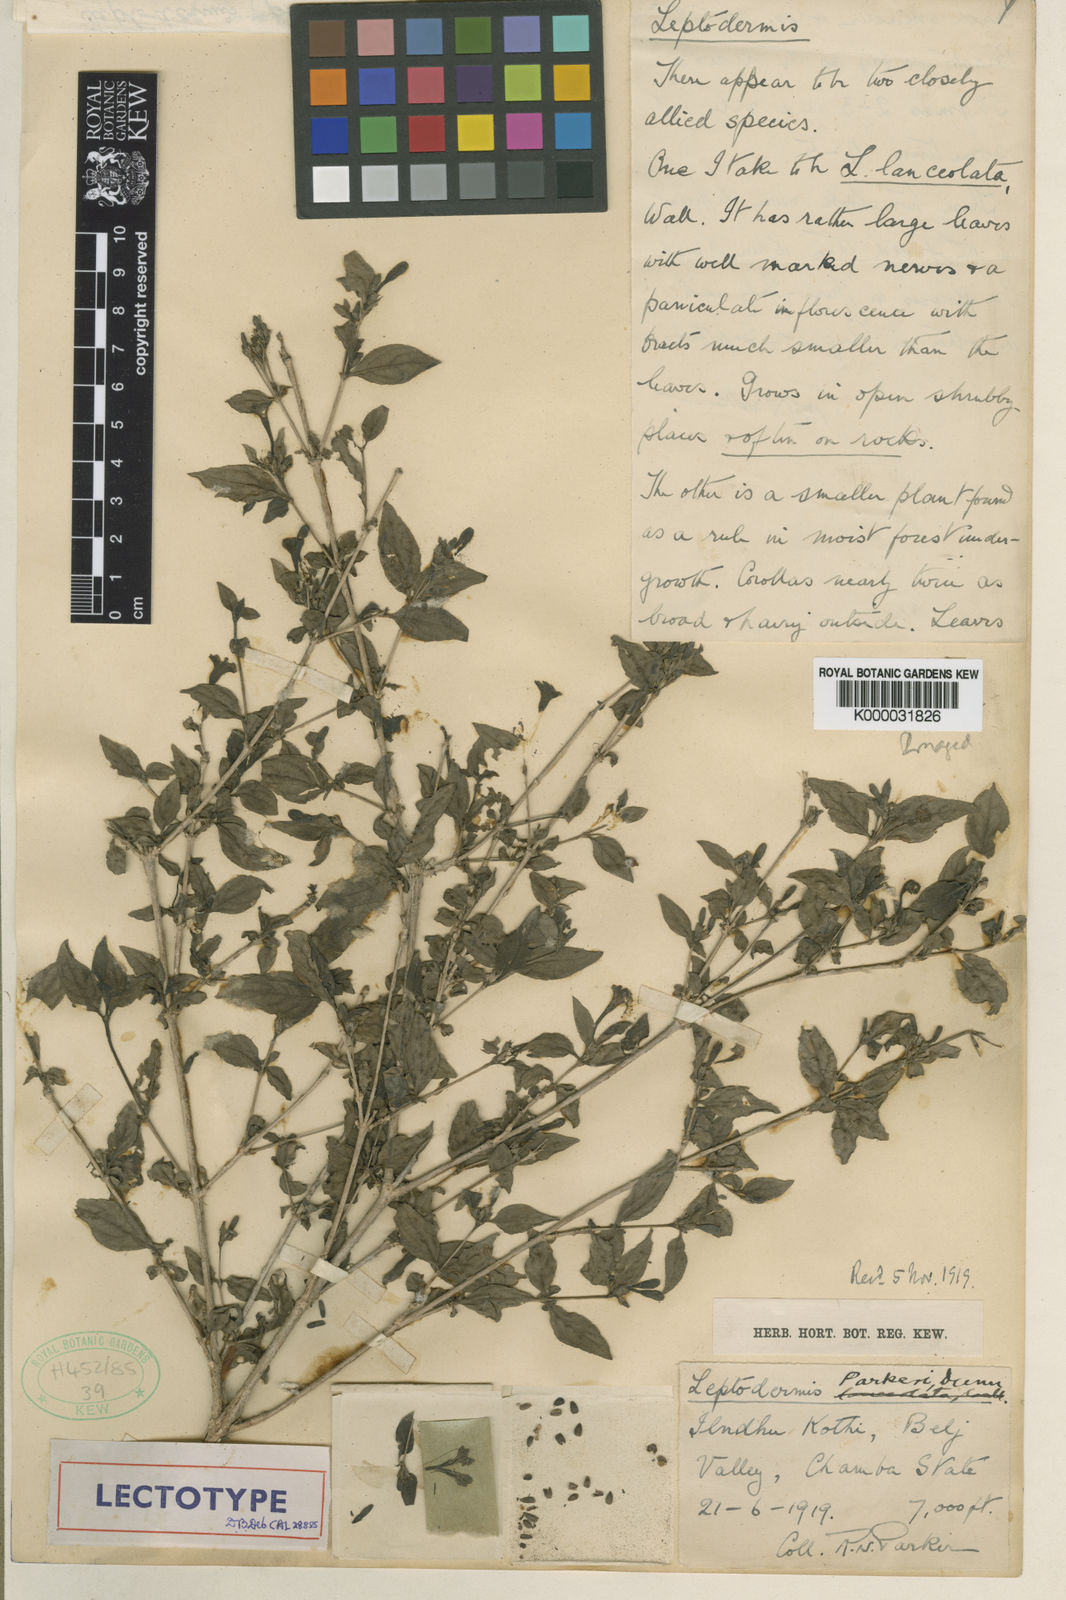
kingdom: Plantae
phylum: Tracheophyta
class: Magnoliopsida
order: Gentianales
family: Rubiaceae
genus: Leptodermis
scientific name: Leptodermis parkeri
